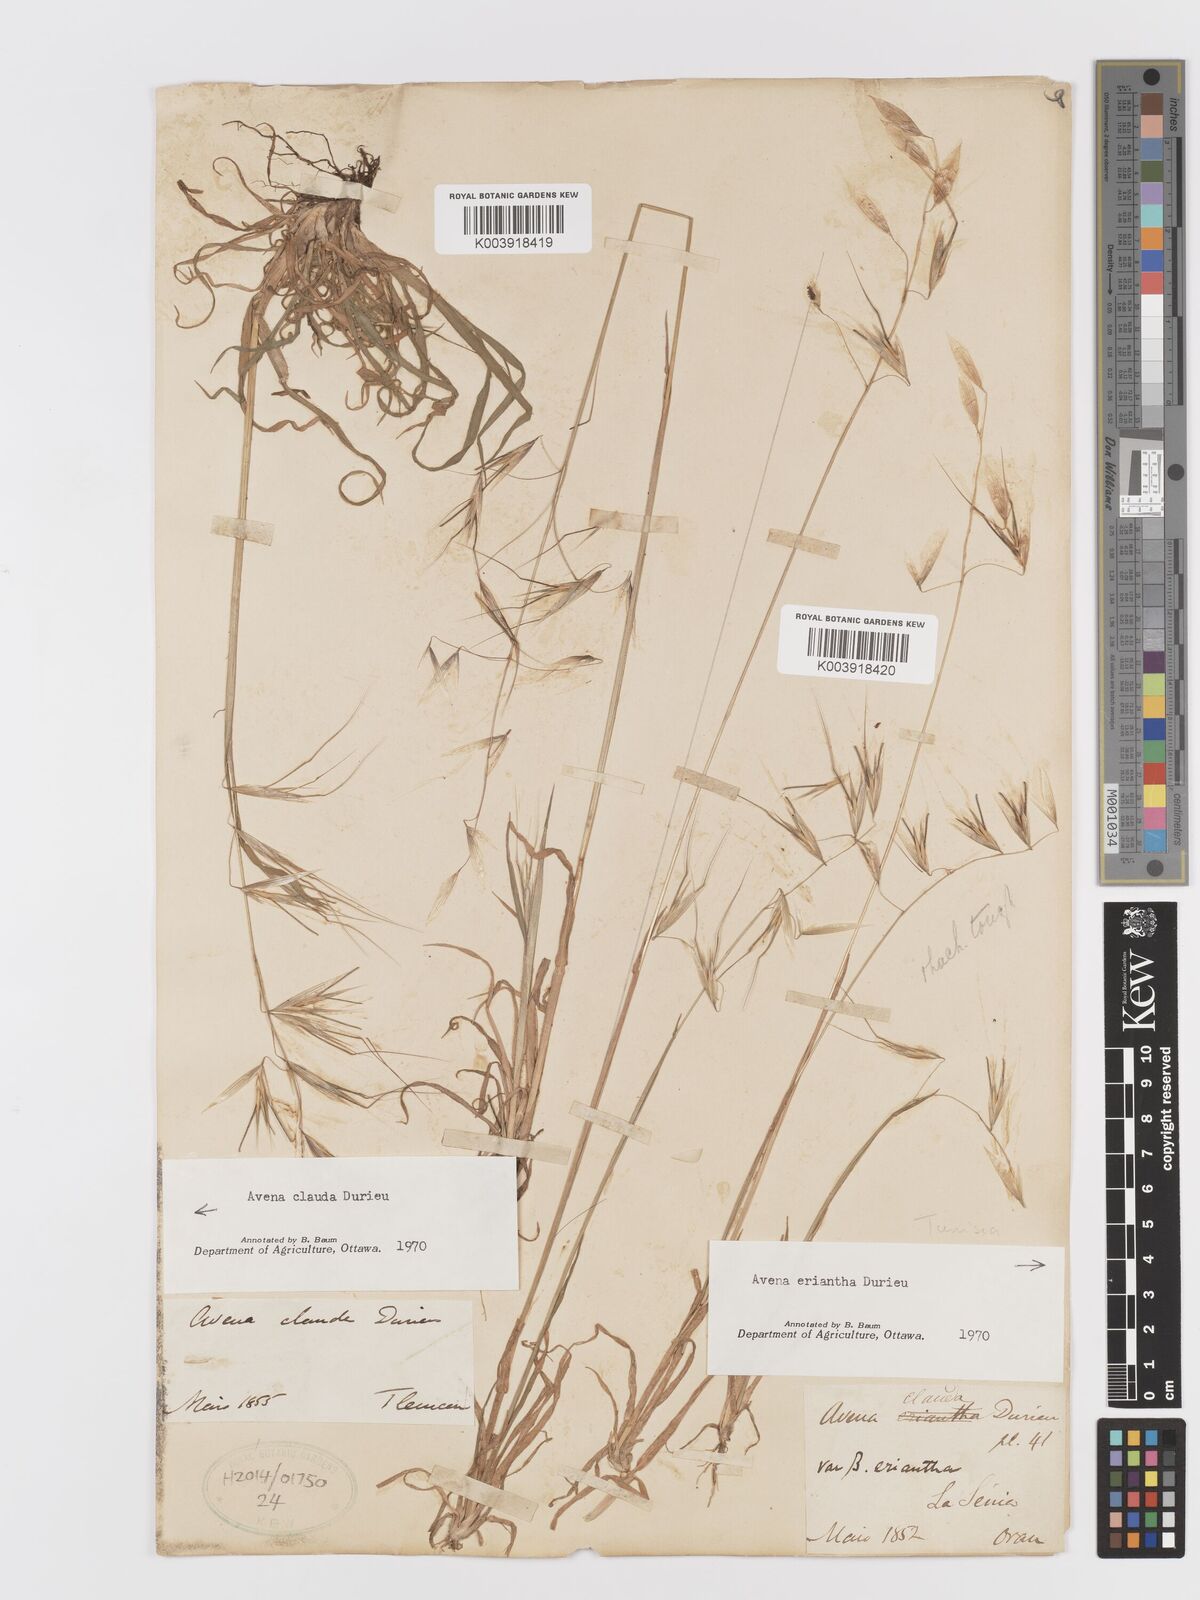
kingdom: Plantae
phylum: Tracheophyta
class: Liliopsida
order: Poales
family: Poaceae
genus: Avena
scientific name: Avena clauda
